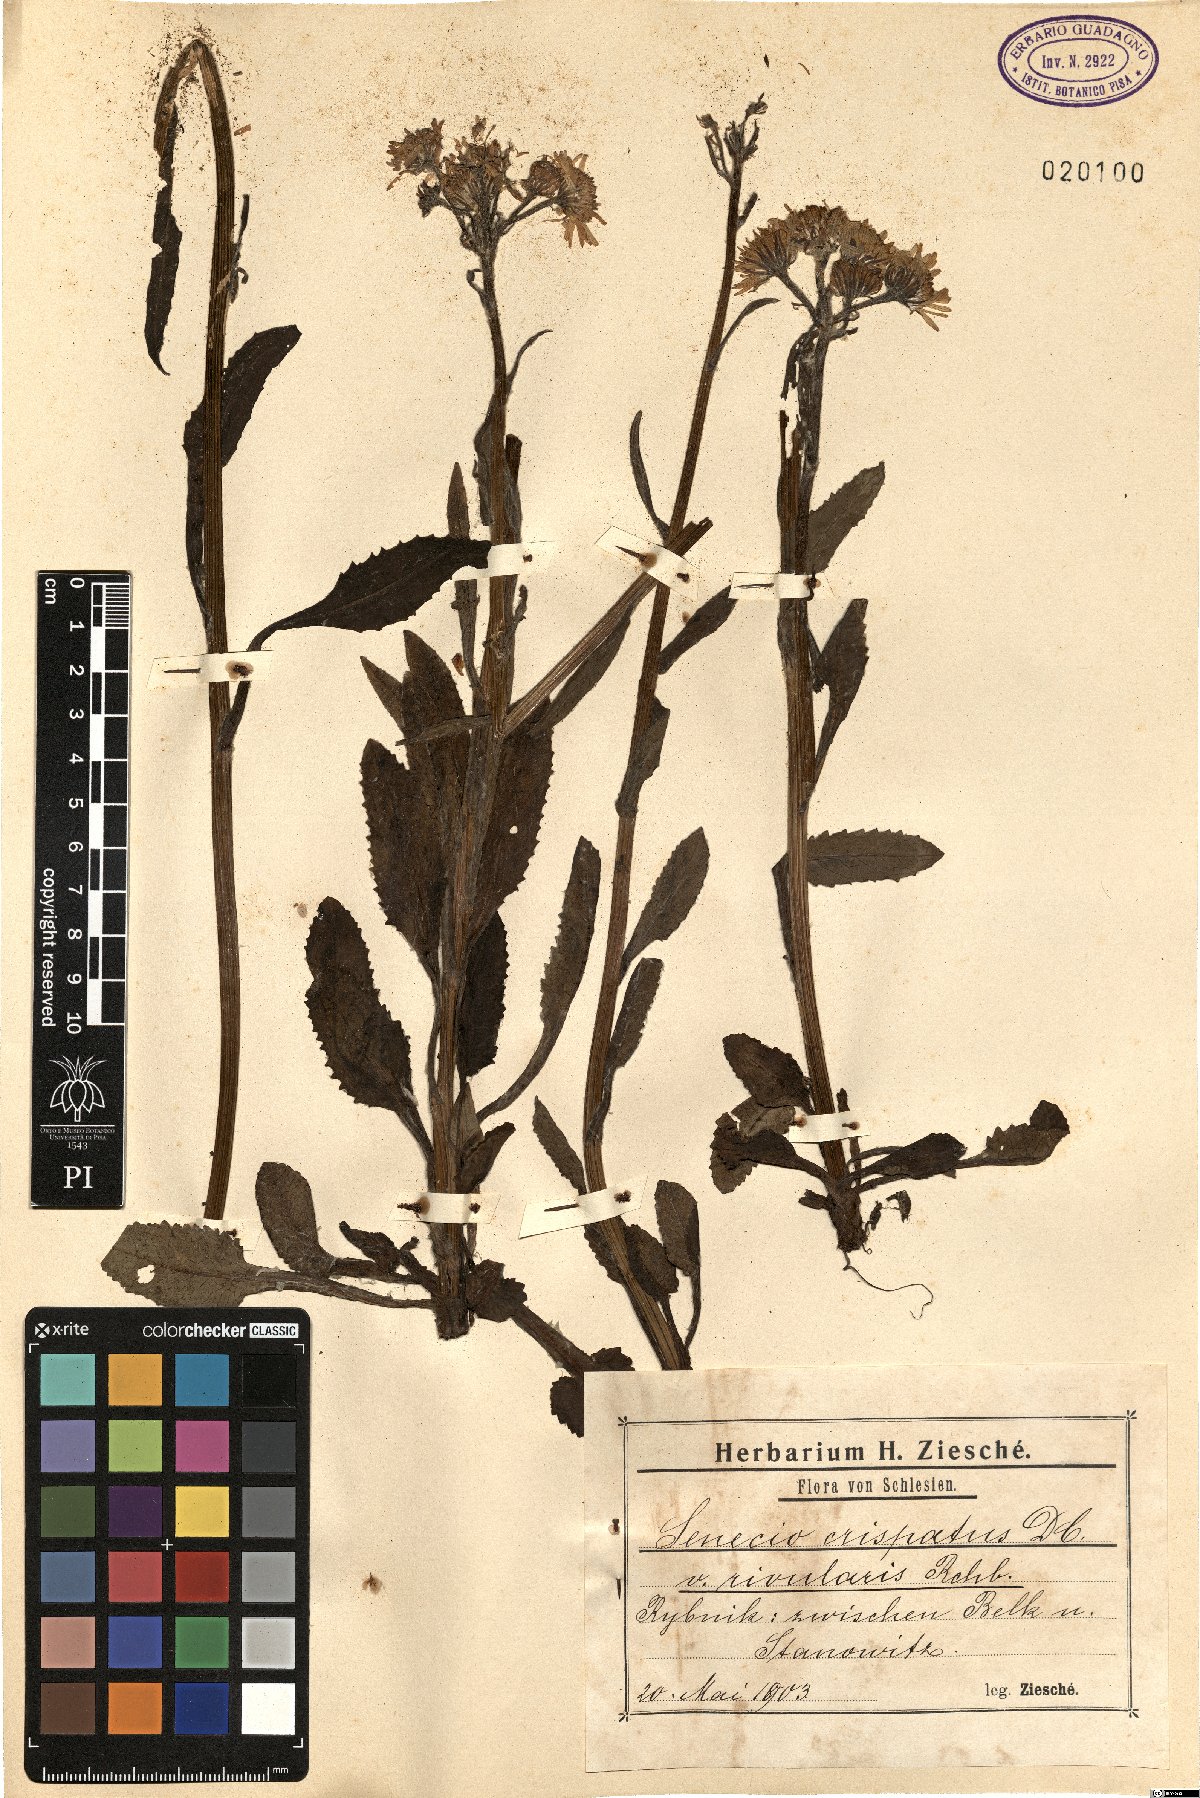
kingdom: Plantae
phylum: Tracheophyta
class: Magnoliopsida
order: Asterales
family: Asteraceae
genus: Tephroseris
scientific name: Tephroseris crispa
